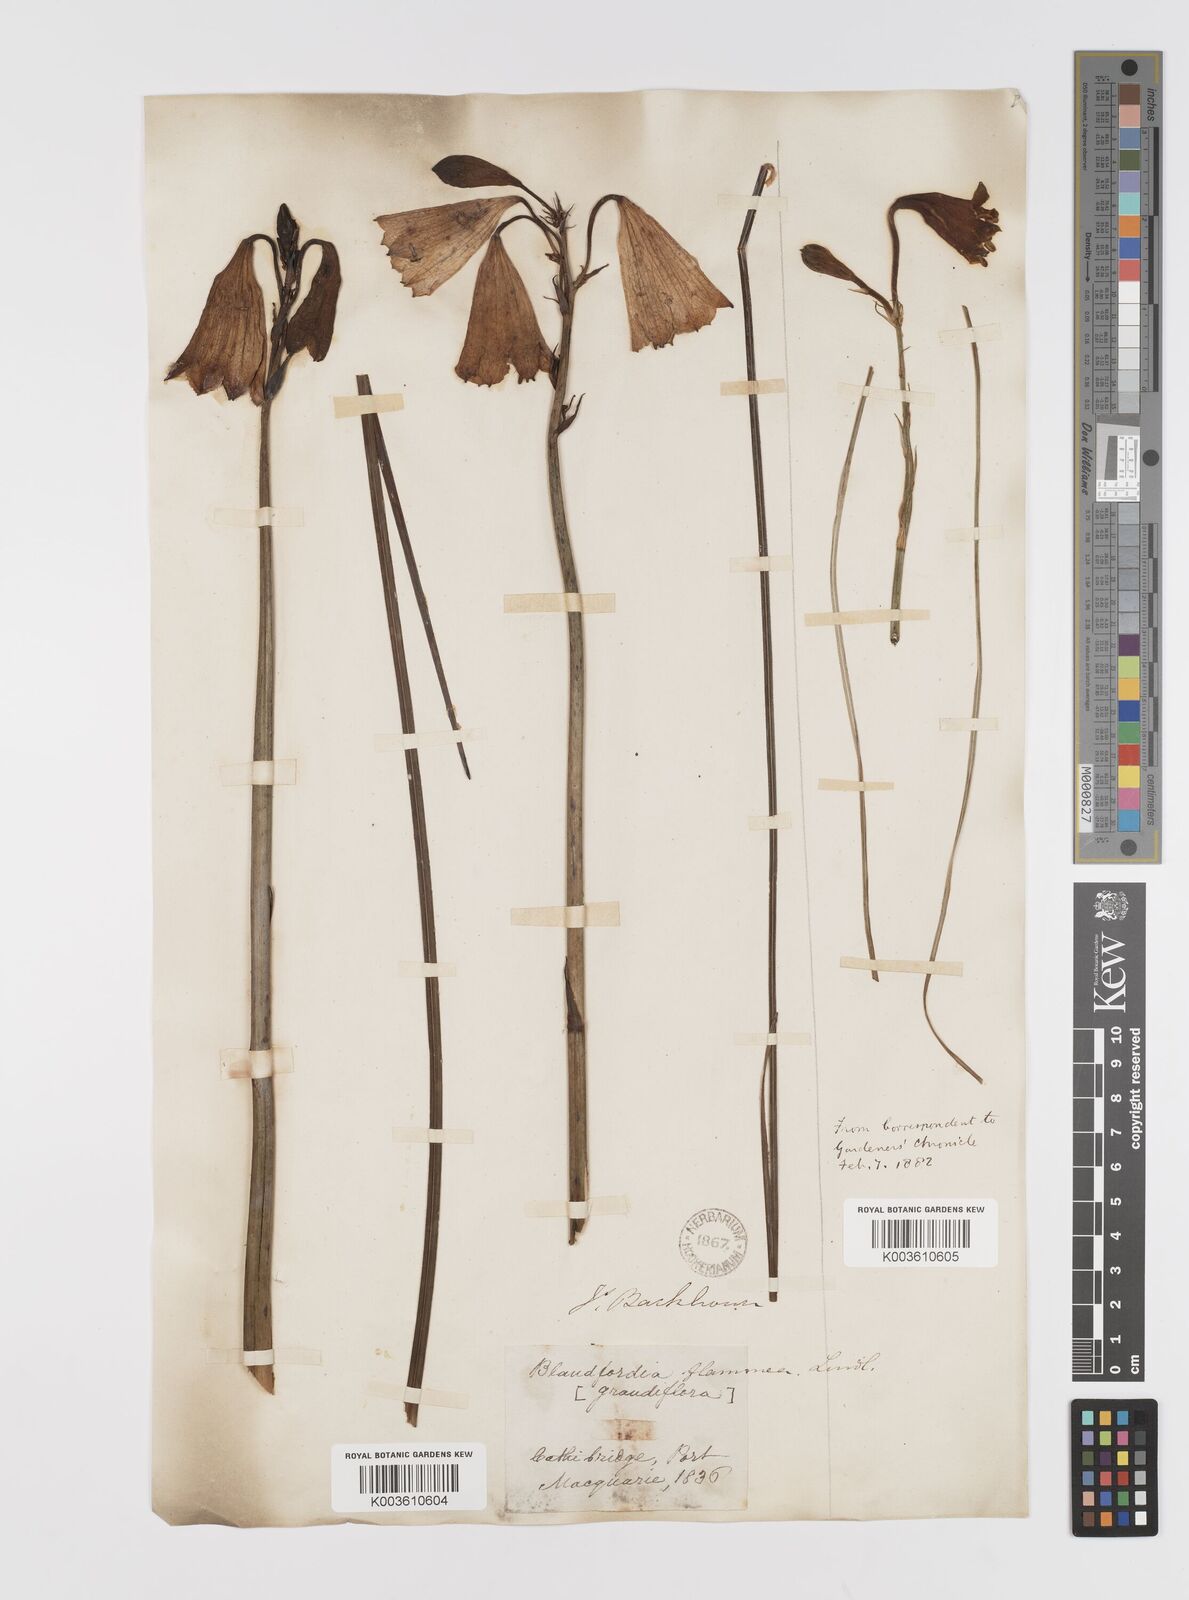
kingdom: Plantae
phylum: Tracheophyta
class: Liliopsida
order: Asparagales
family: Blandfordiaceae
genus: Blandfordia
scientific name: Blandfordia grandiflora
